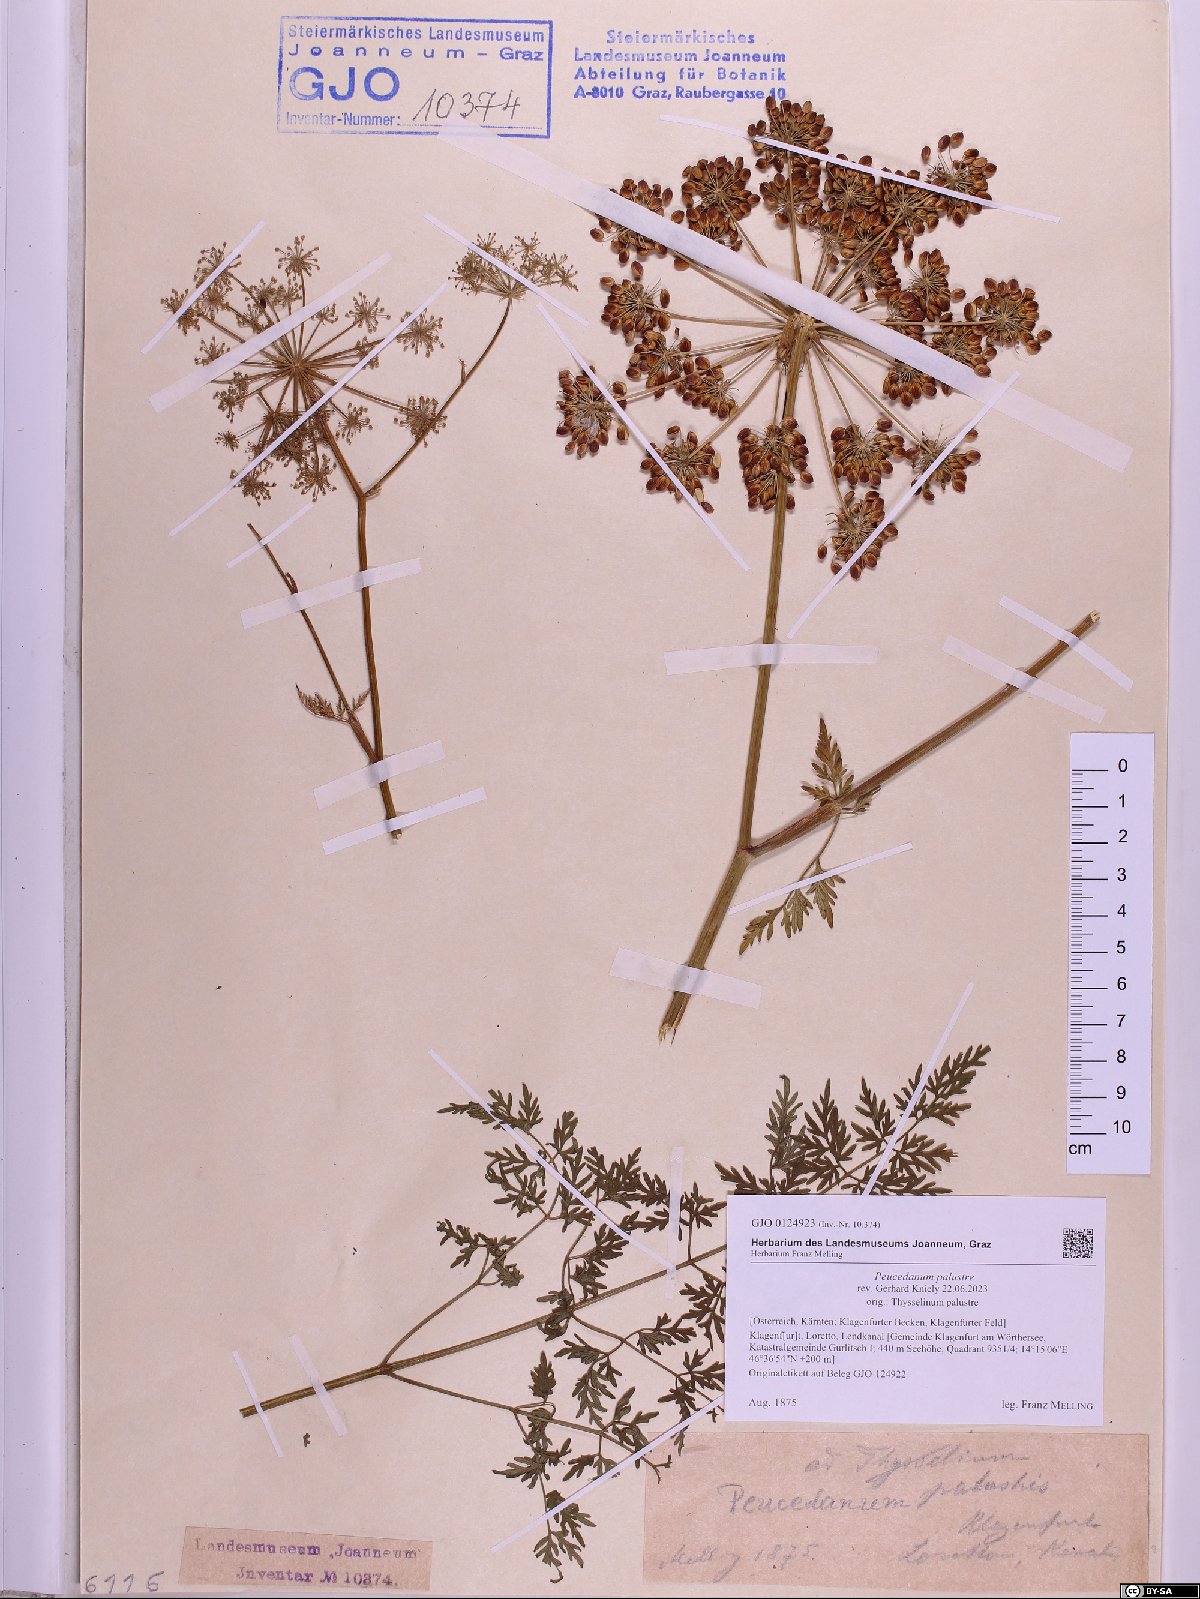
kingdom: Plantae
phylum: Tracheophyta
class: Magnoliopsida
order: Apiales
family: Apiaceae
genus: Thysselinum
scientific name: Thysselinum palustre
